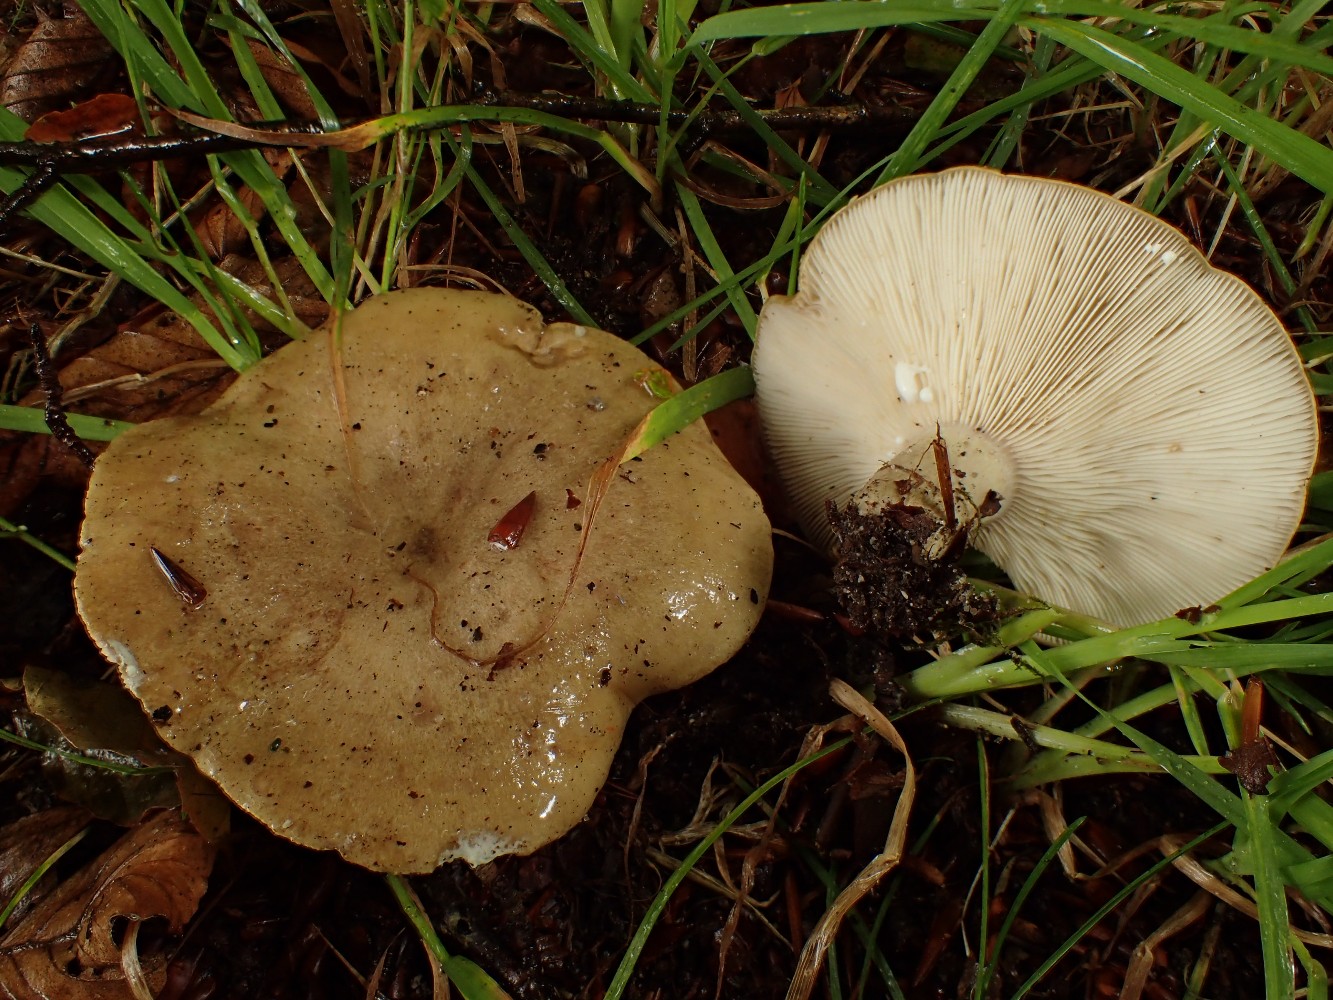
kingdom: Fungi
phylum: Basidiomycota
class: Agaricomycetes
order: Russulales
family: Russulaceae
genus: Lactarius
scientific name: Lactarius blennius
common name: dråbeplettet mælkehat
